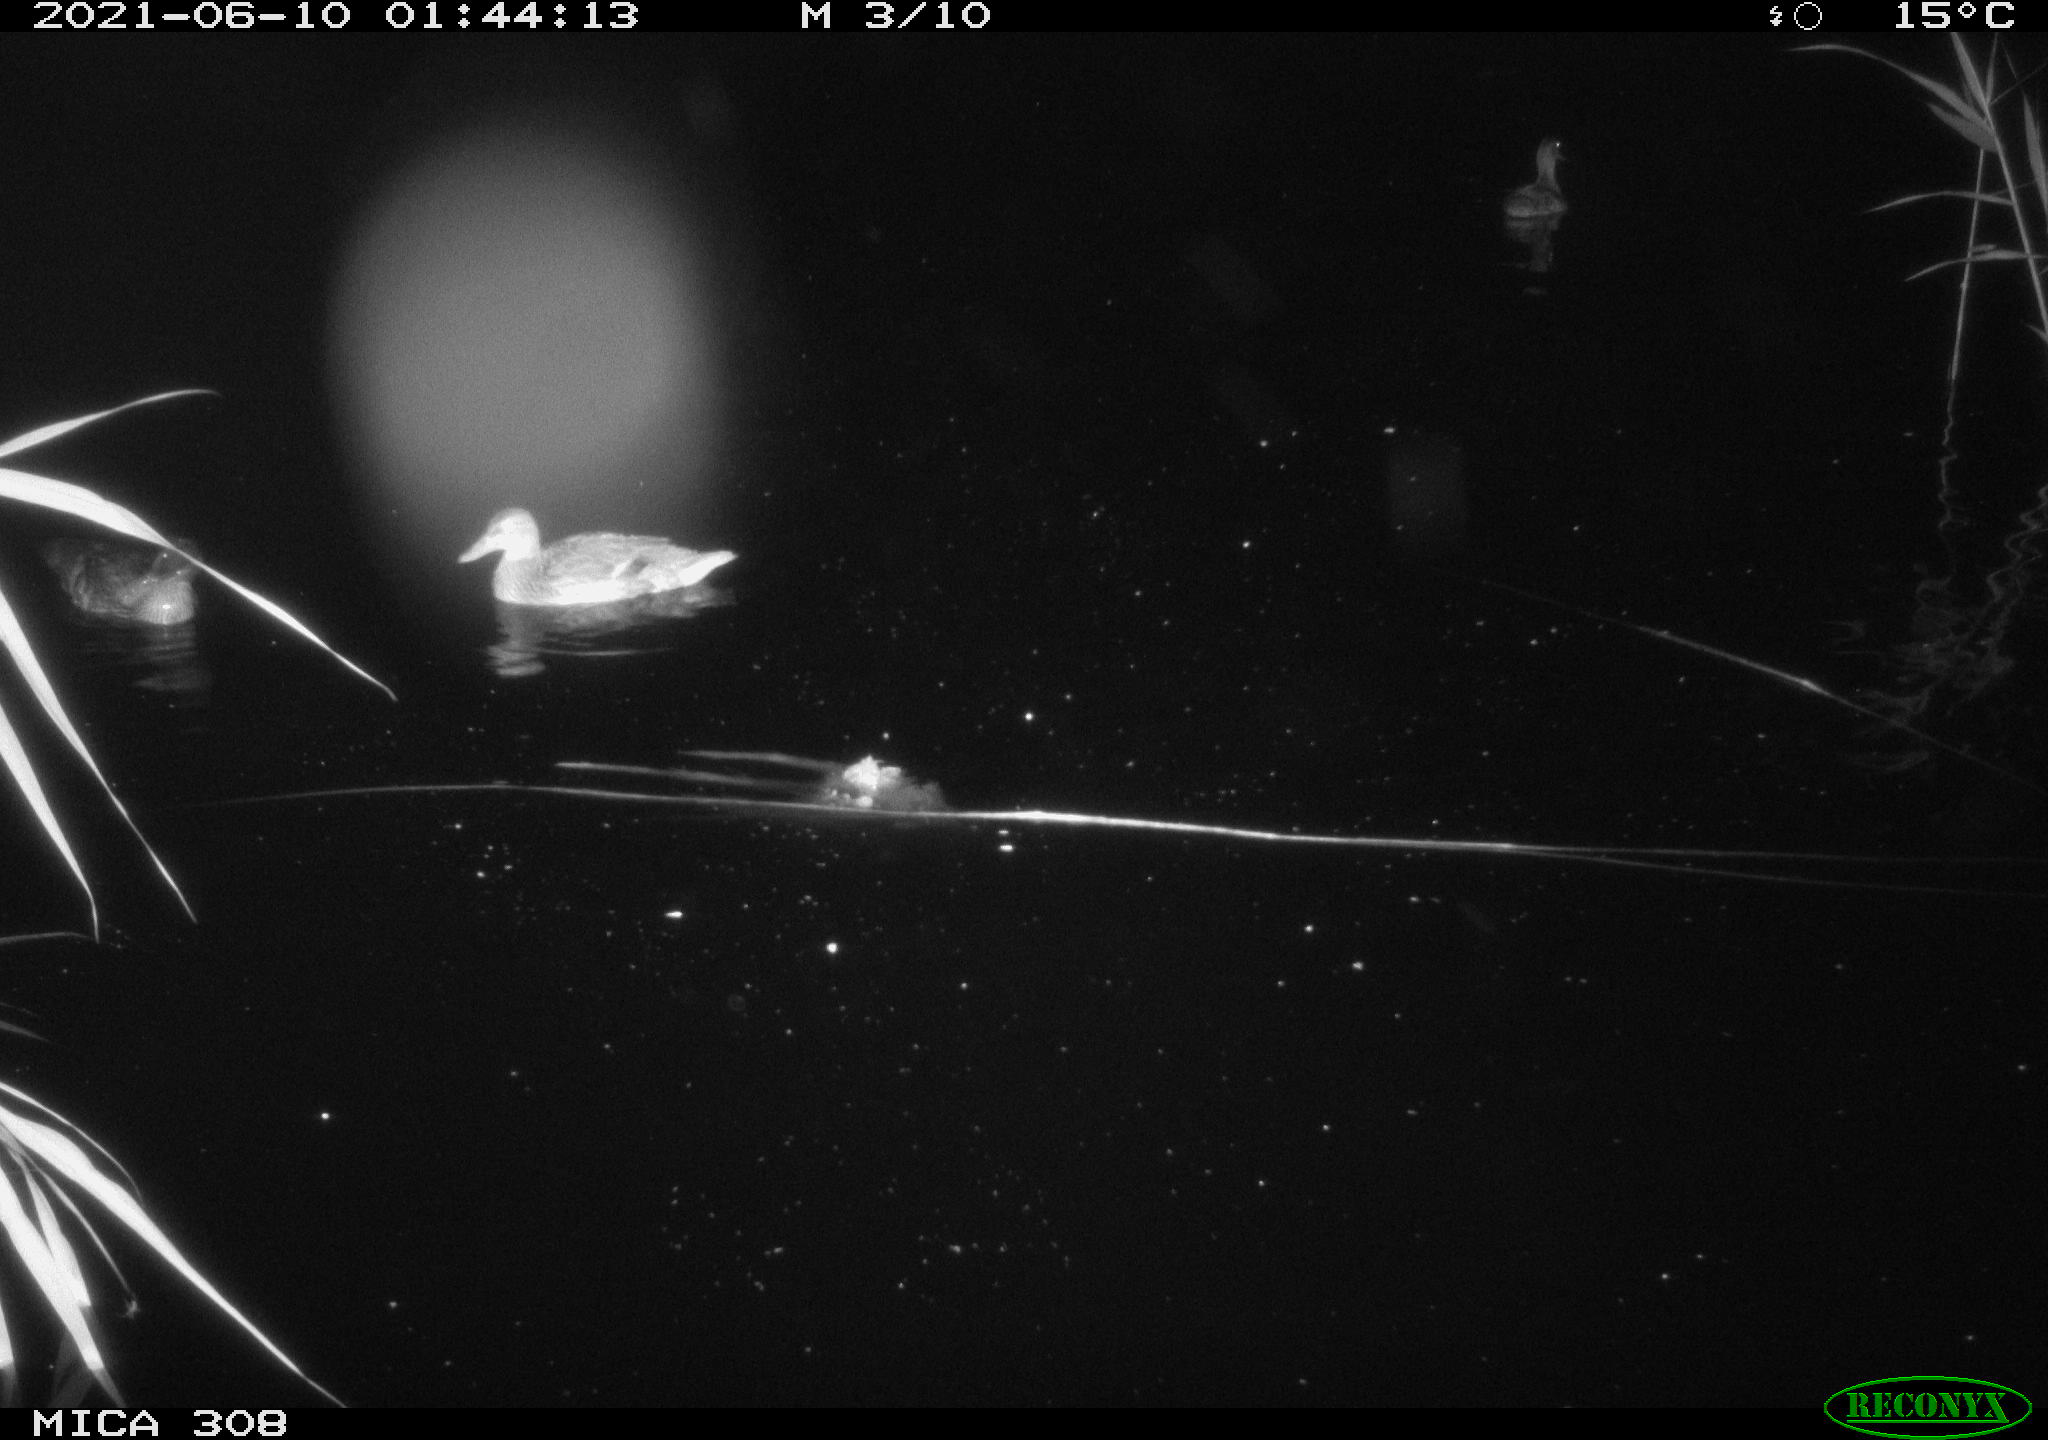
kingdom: Animalia
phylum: Chordata
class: Aves
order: Anseriformes
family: Anatidae
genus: Mareca
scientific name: Mareca strepera
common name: Gadwall
